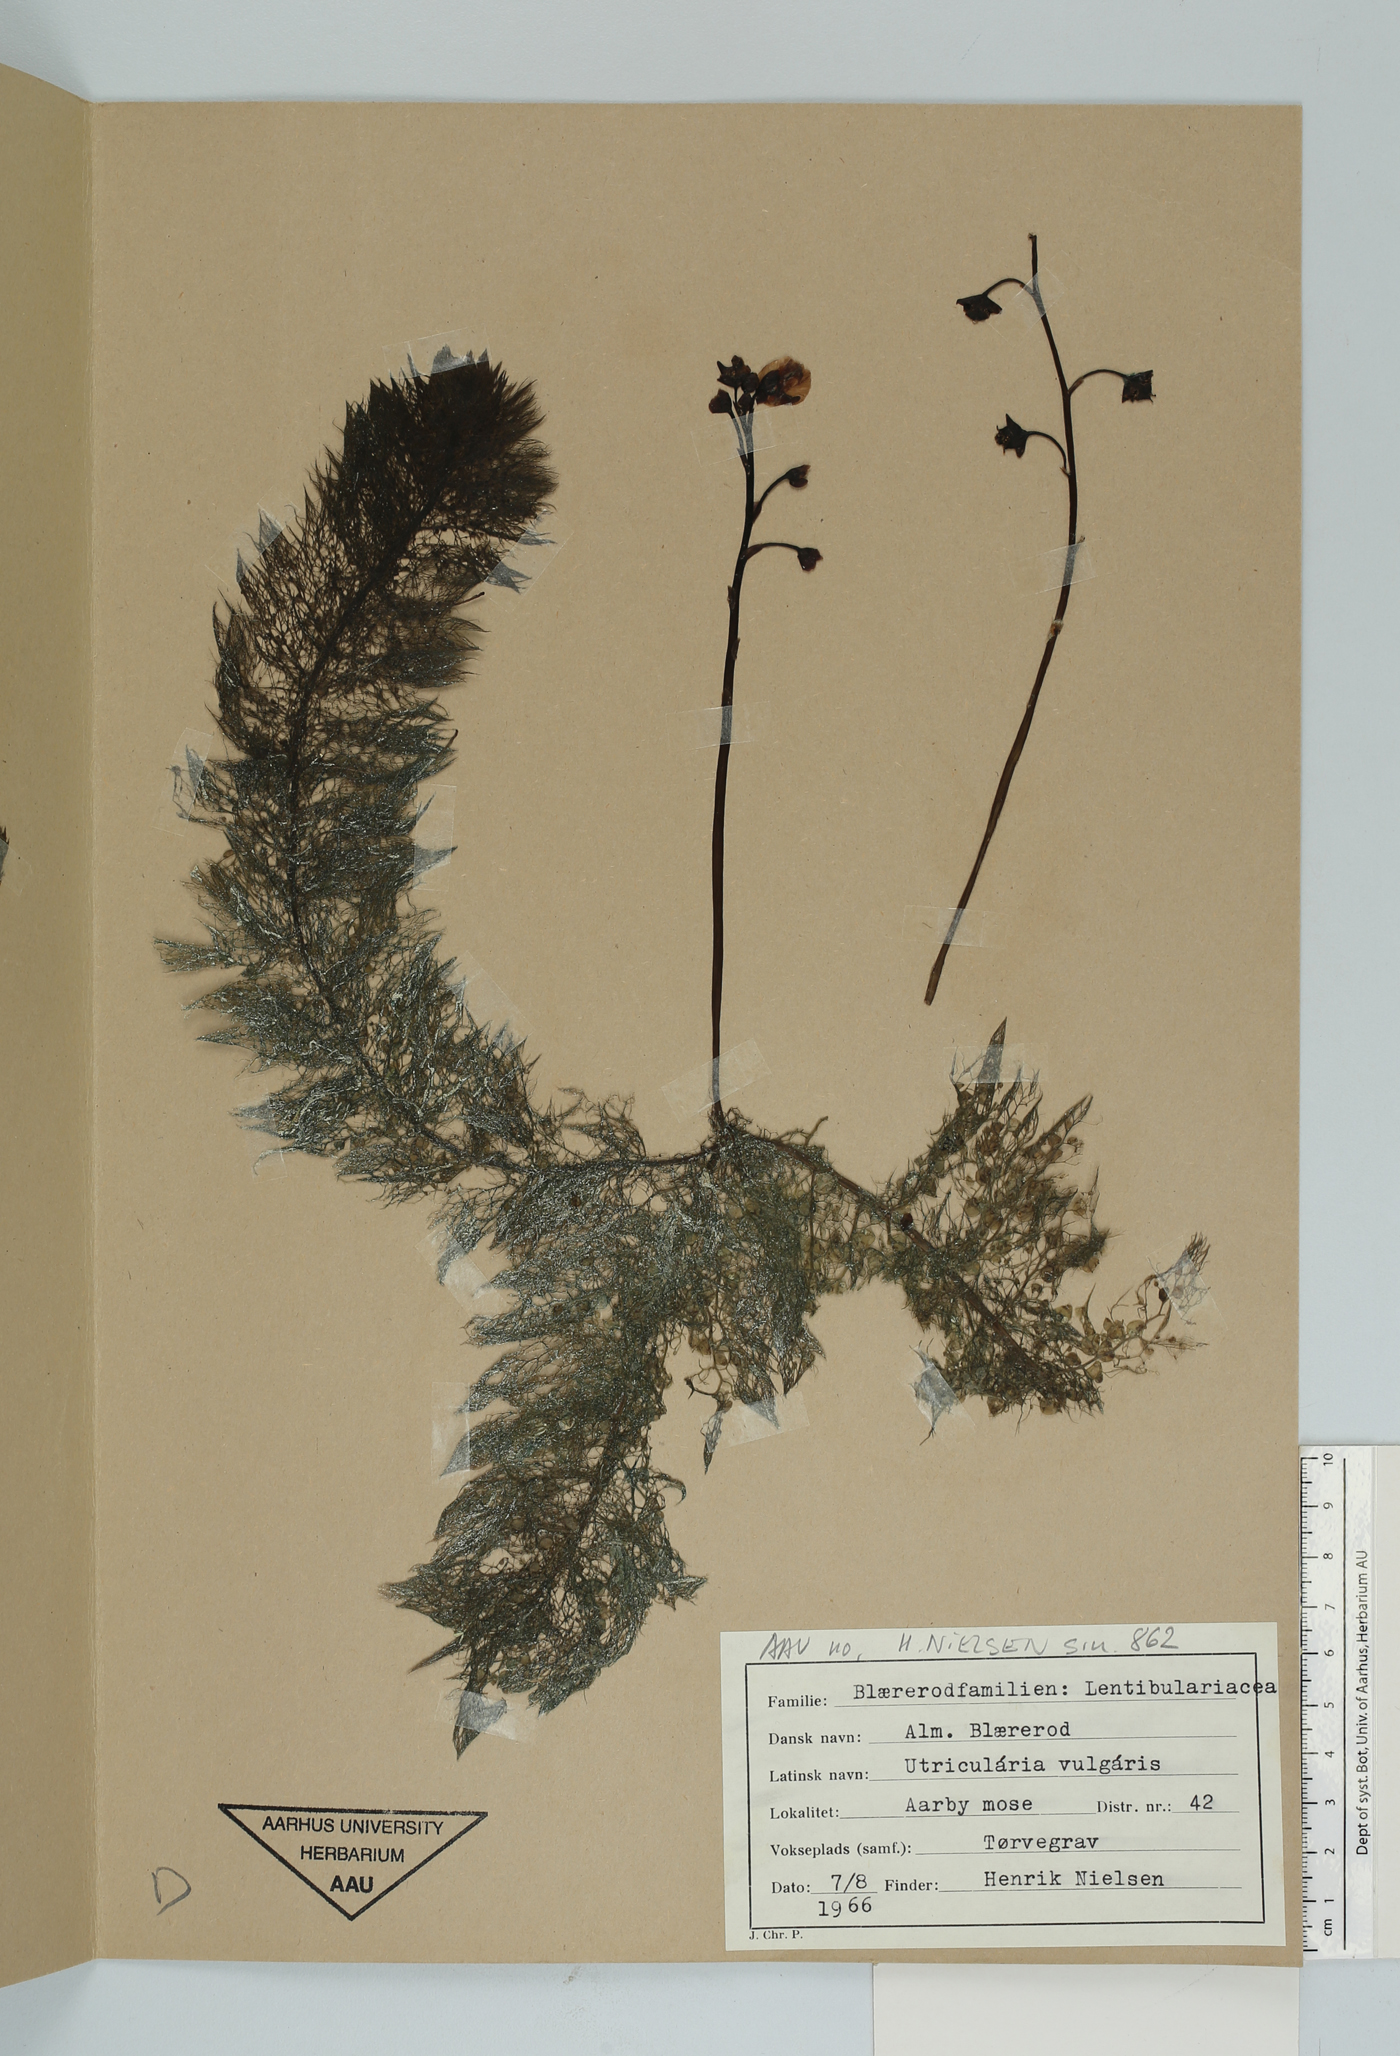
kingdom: Plantae
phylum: Tracheophyta
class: Magnoliopsida
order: Lamiales
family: Lentibulariaceae
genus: Utricularia
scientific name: Utricularia vulgaris
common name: Greater bladderwort
